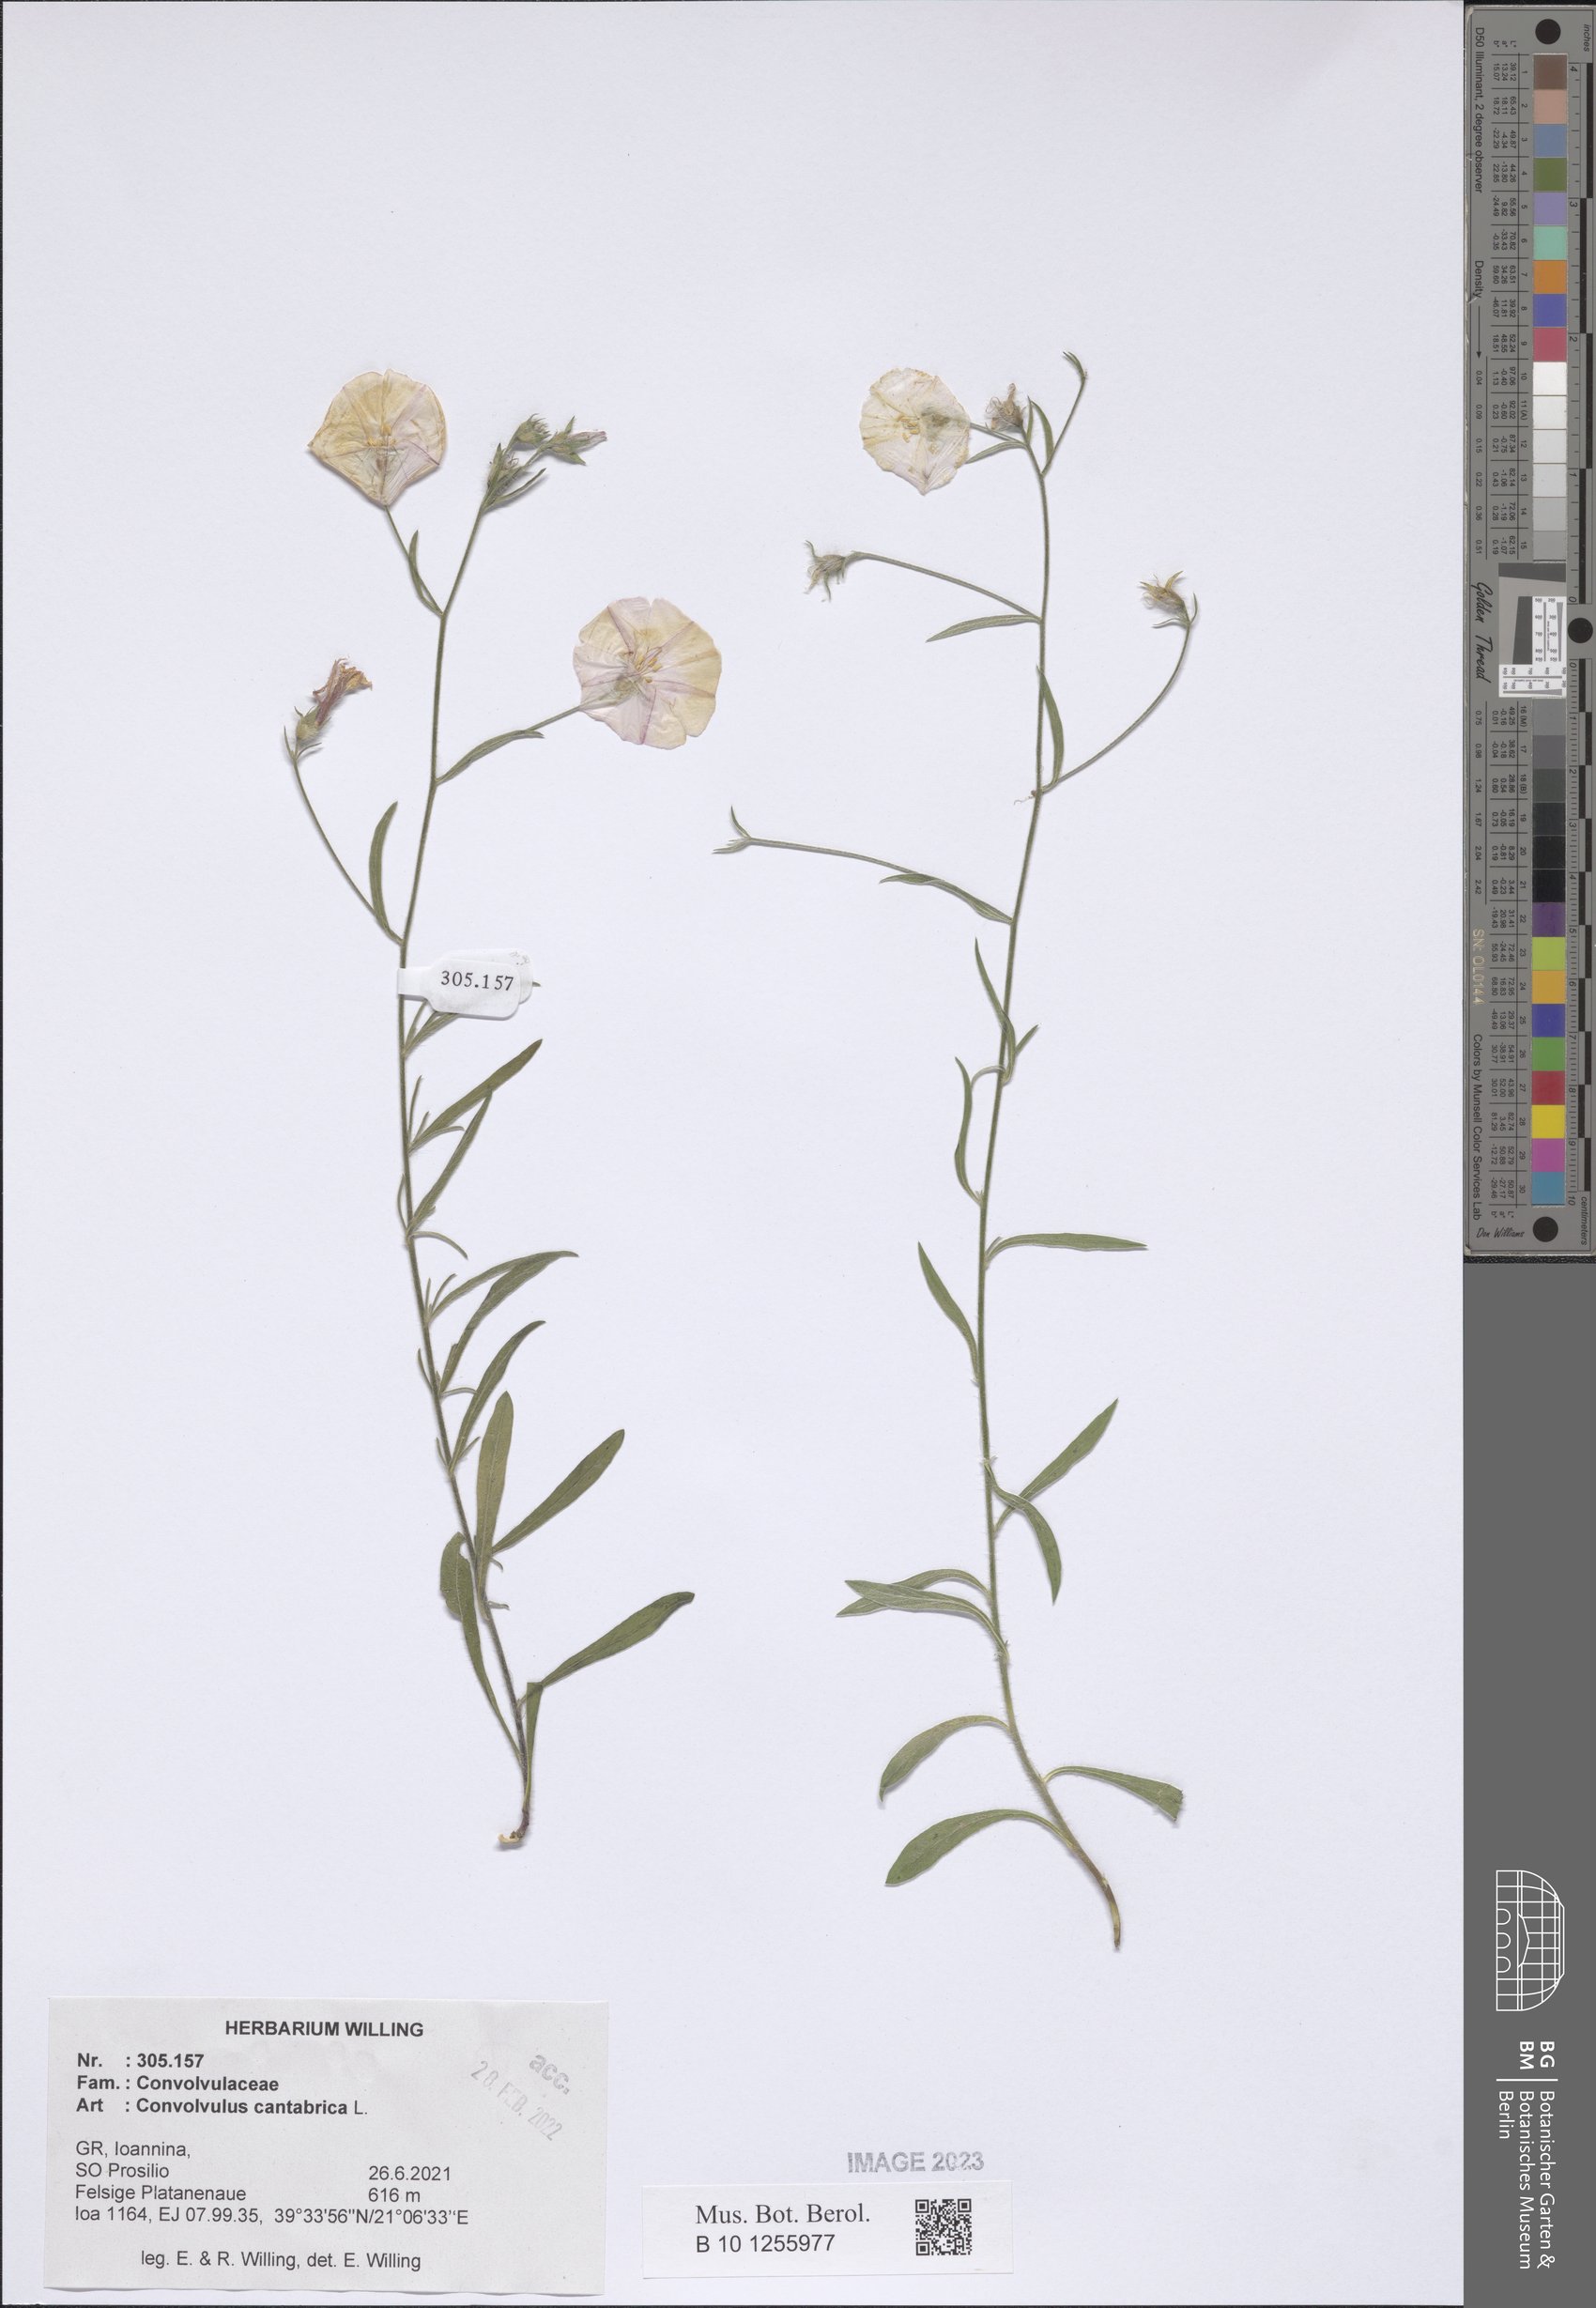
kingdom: Plantae
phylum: Tracheophyta
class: Magnoliopsida
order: Solanales
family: Convolvulaceae
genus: Convolvulus
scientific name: Convolvulus cantabrica
